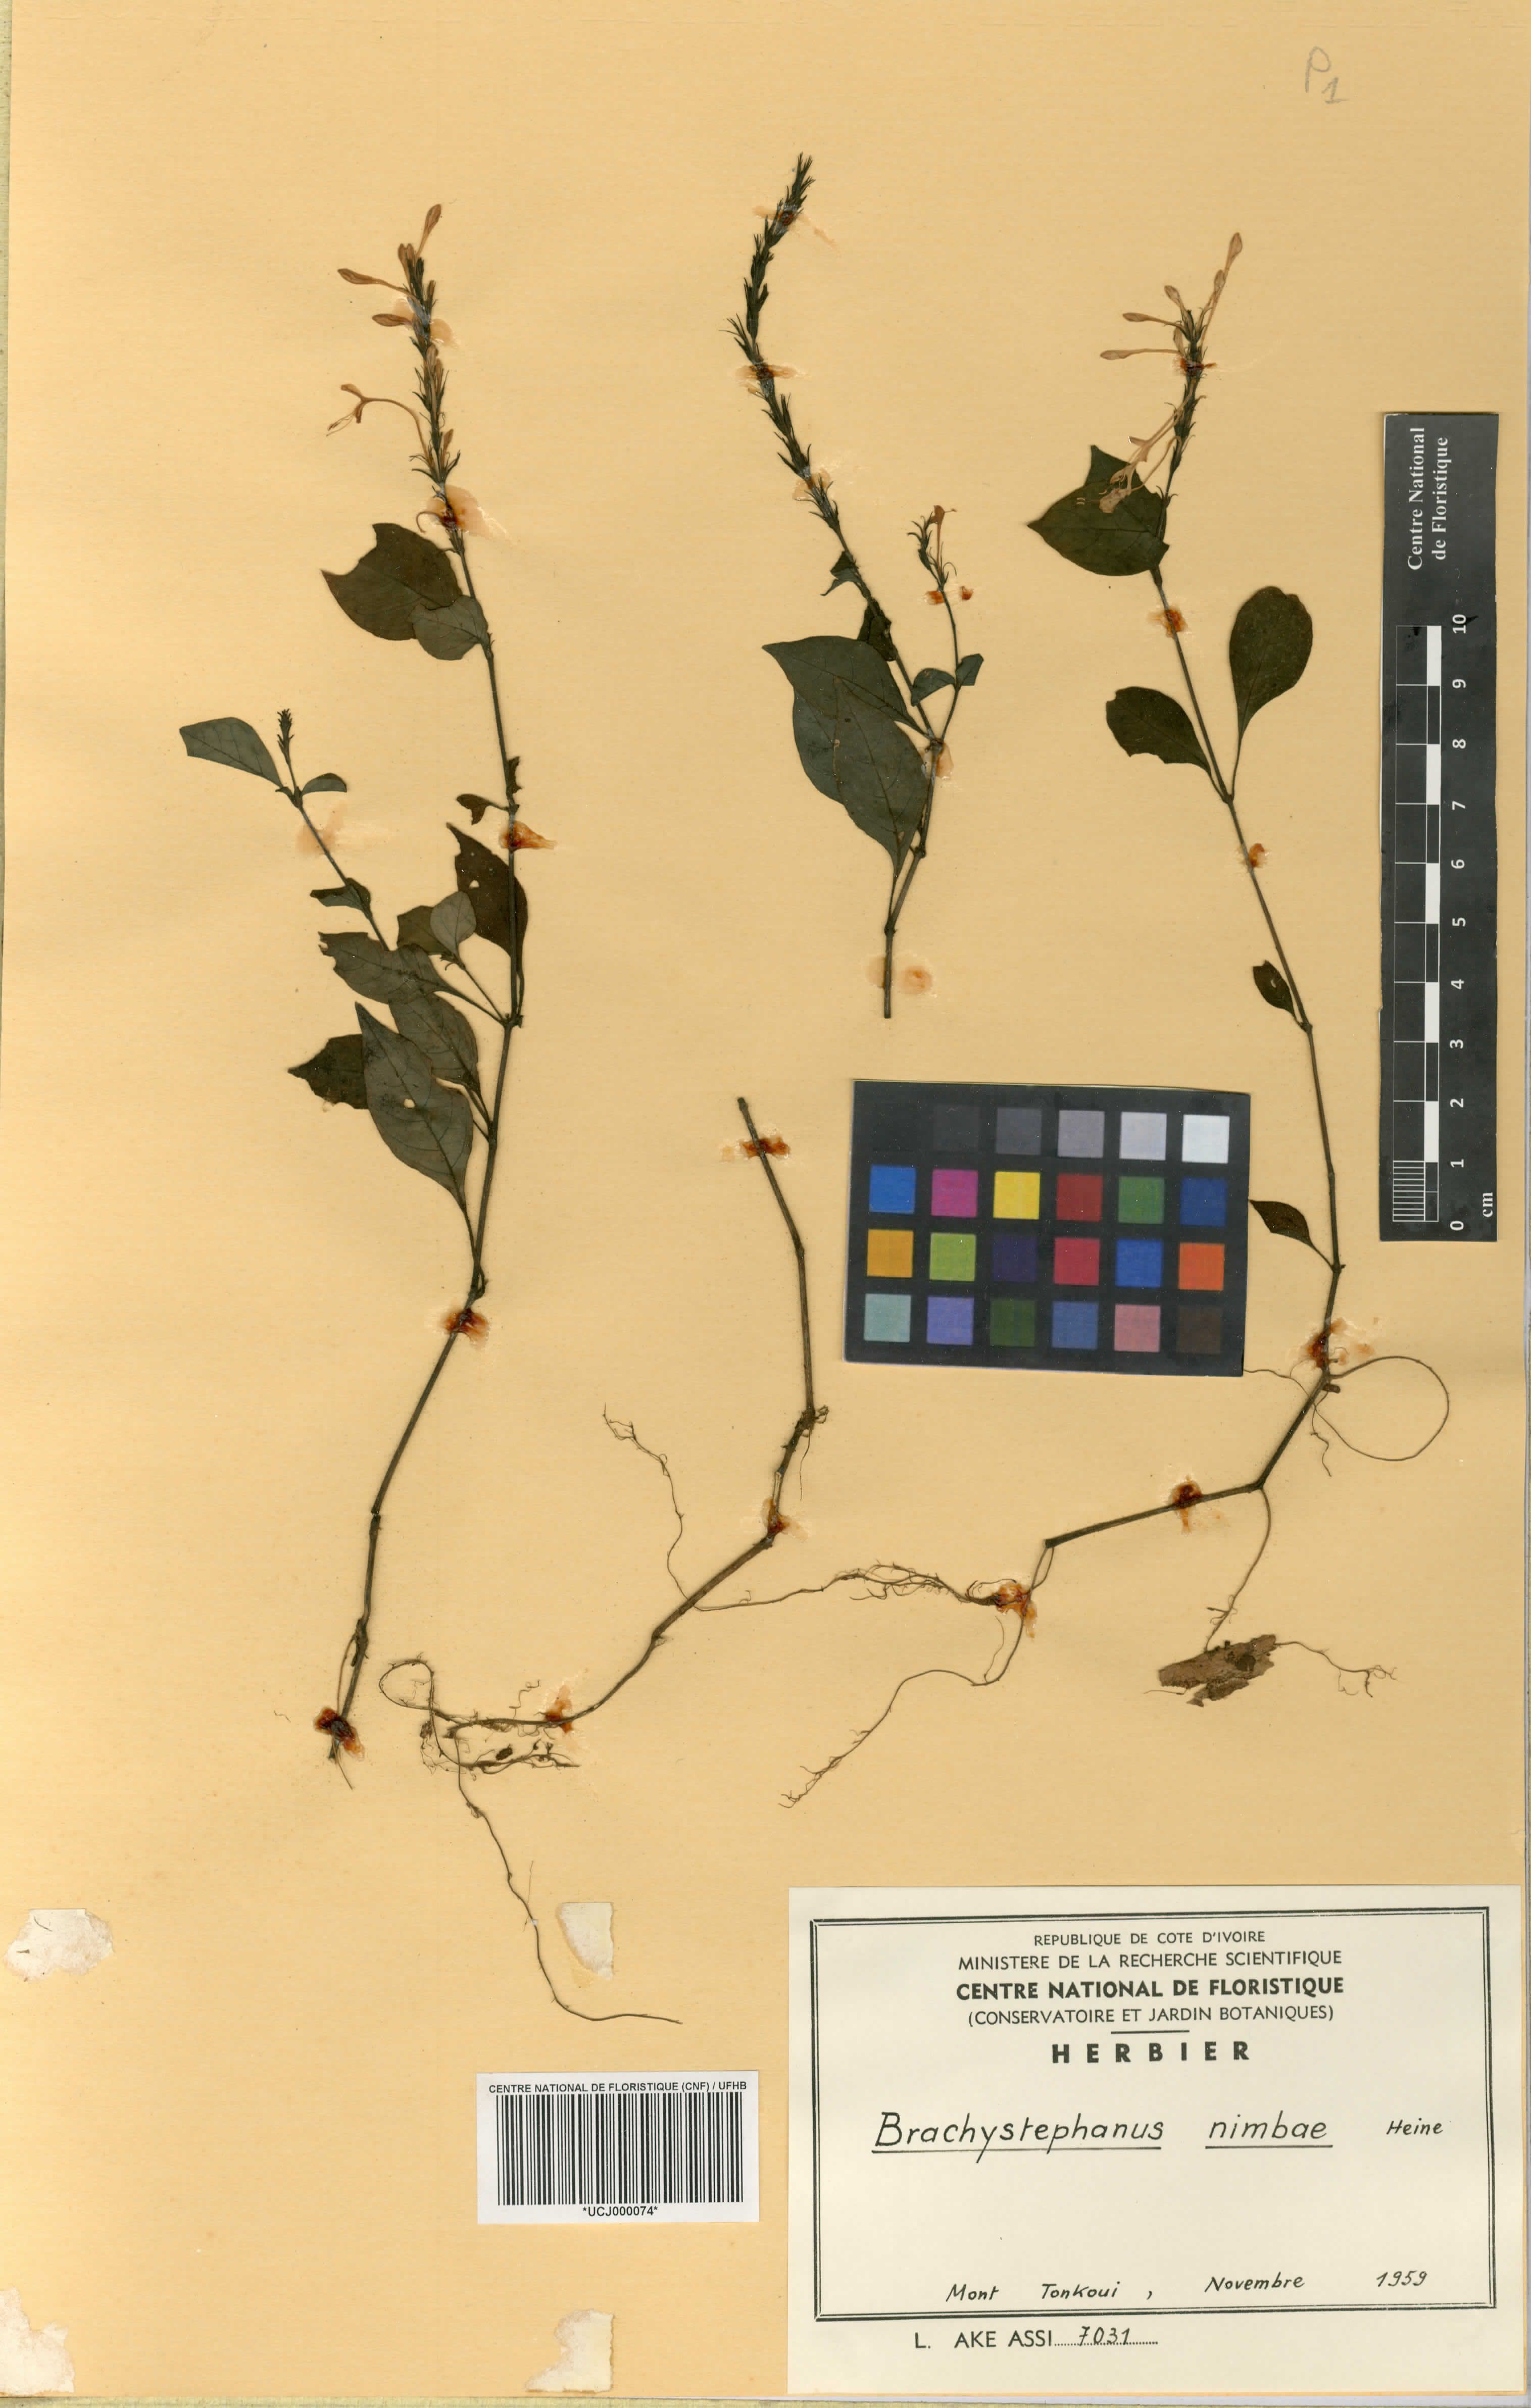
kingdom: Plantae
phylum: Tracheophyta
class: Magnoliopsida
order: Lamiales
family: Acanthaceae
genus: Brachystephanus
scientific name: Brachystephanus jaundensis
